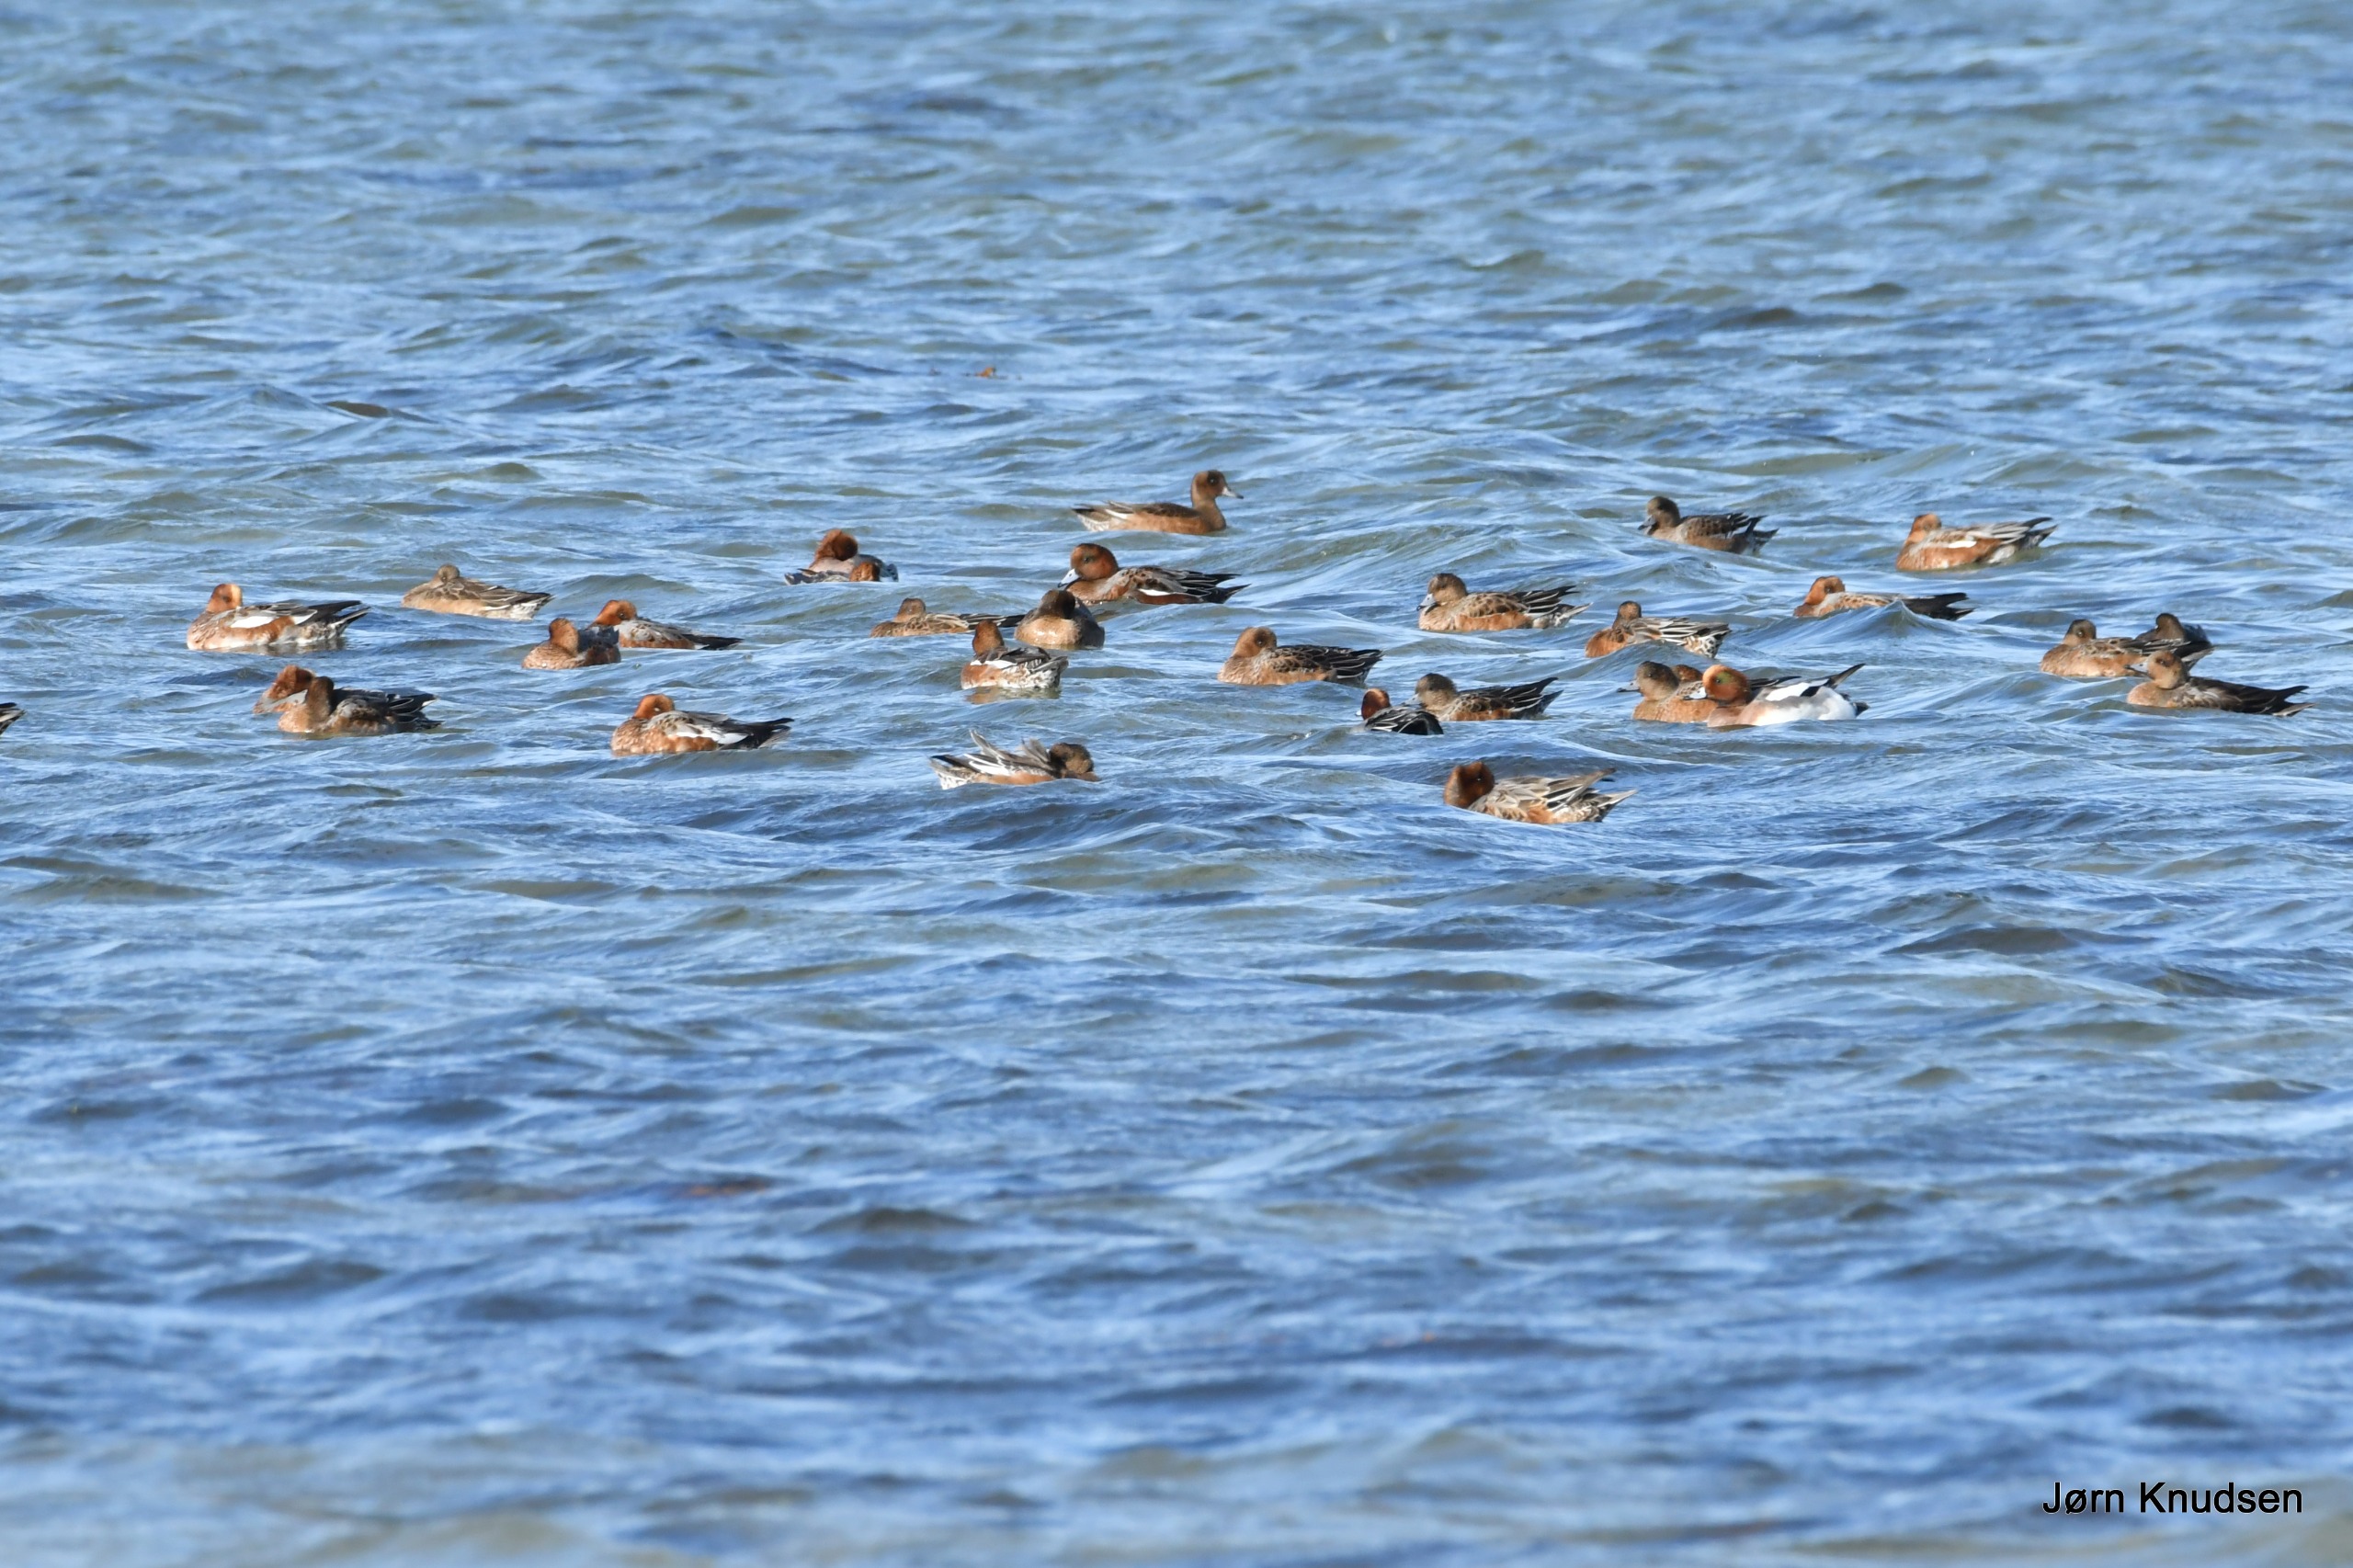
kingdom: Animalia
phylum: Chordata
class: Aves
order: Anseriformes
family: Anatidae
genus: Mareca
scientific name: Mareca penelope
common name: Pibeand
